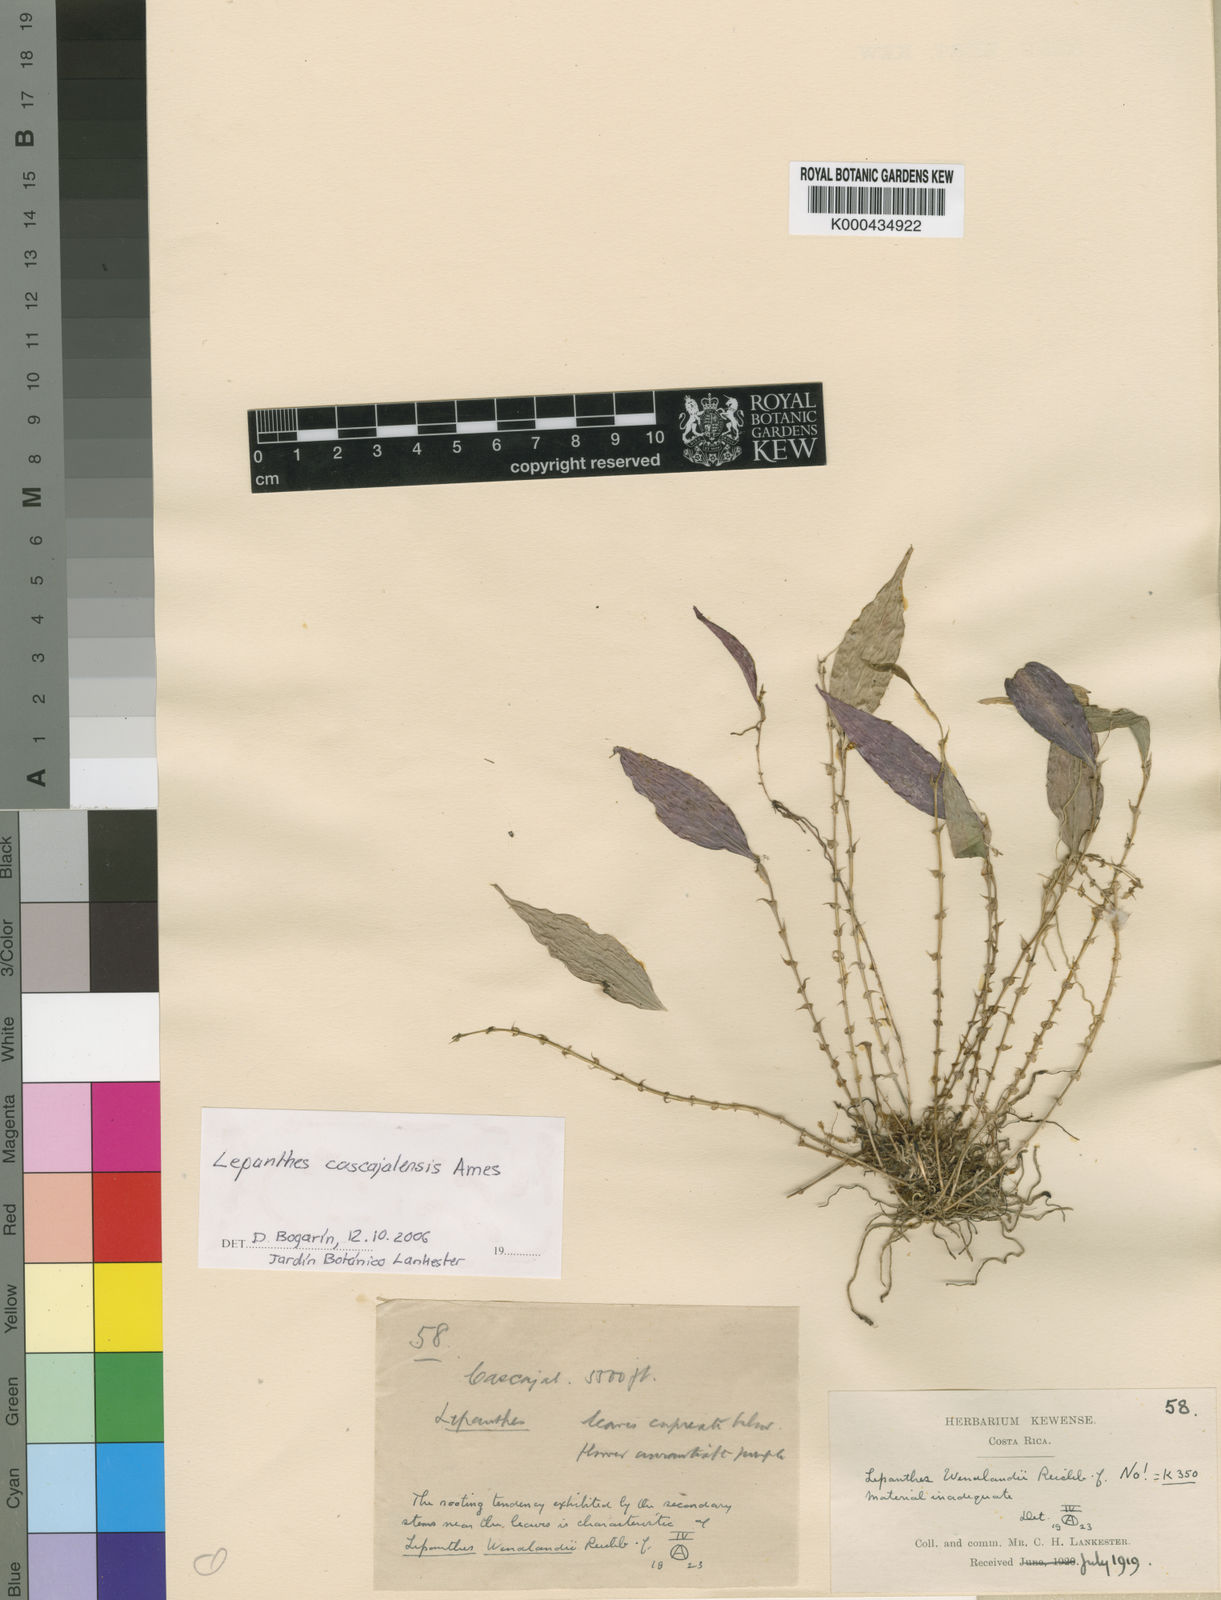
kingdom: Plantae
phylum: Tracheophyta
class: Liliopsida
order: Asparagales
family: Orchidaceae
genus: Lepanthes
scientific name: Lepanthes wendlandii
